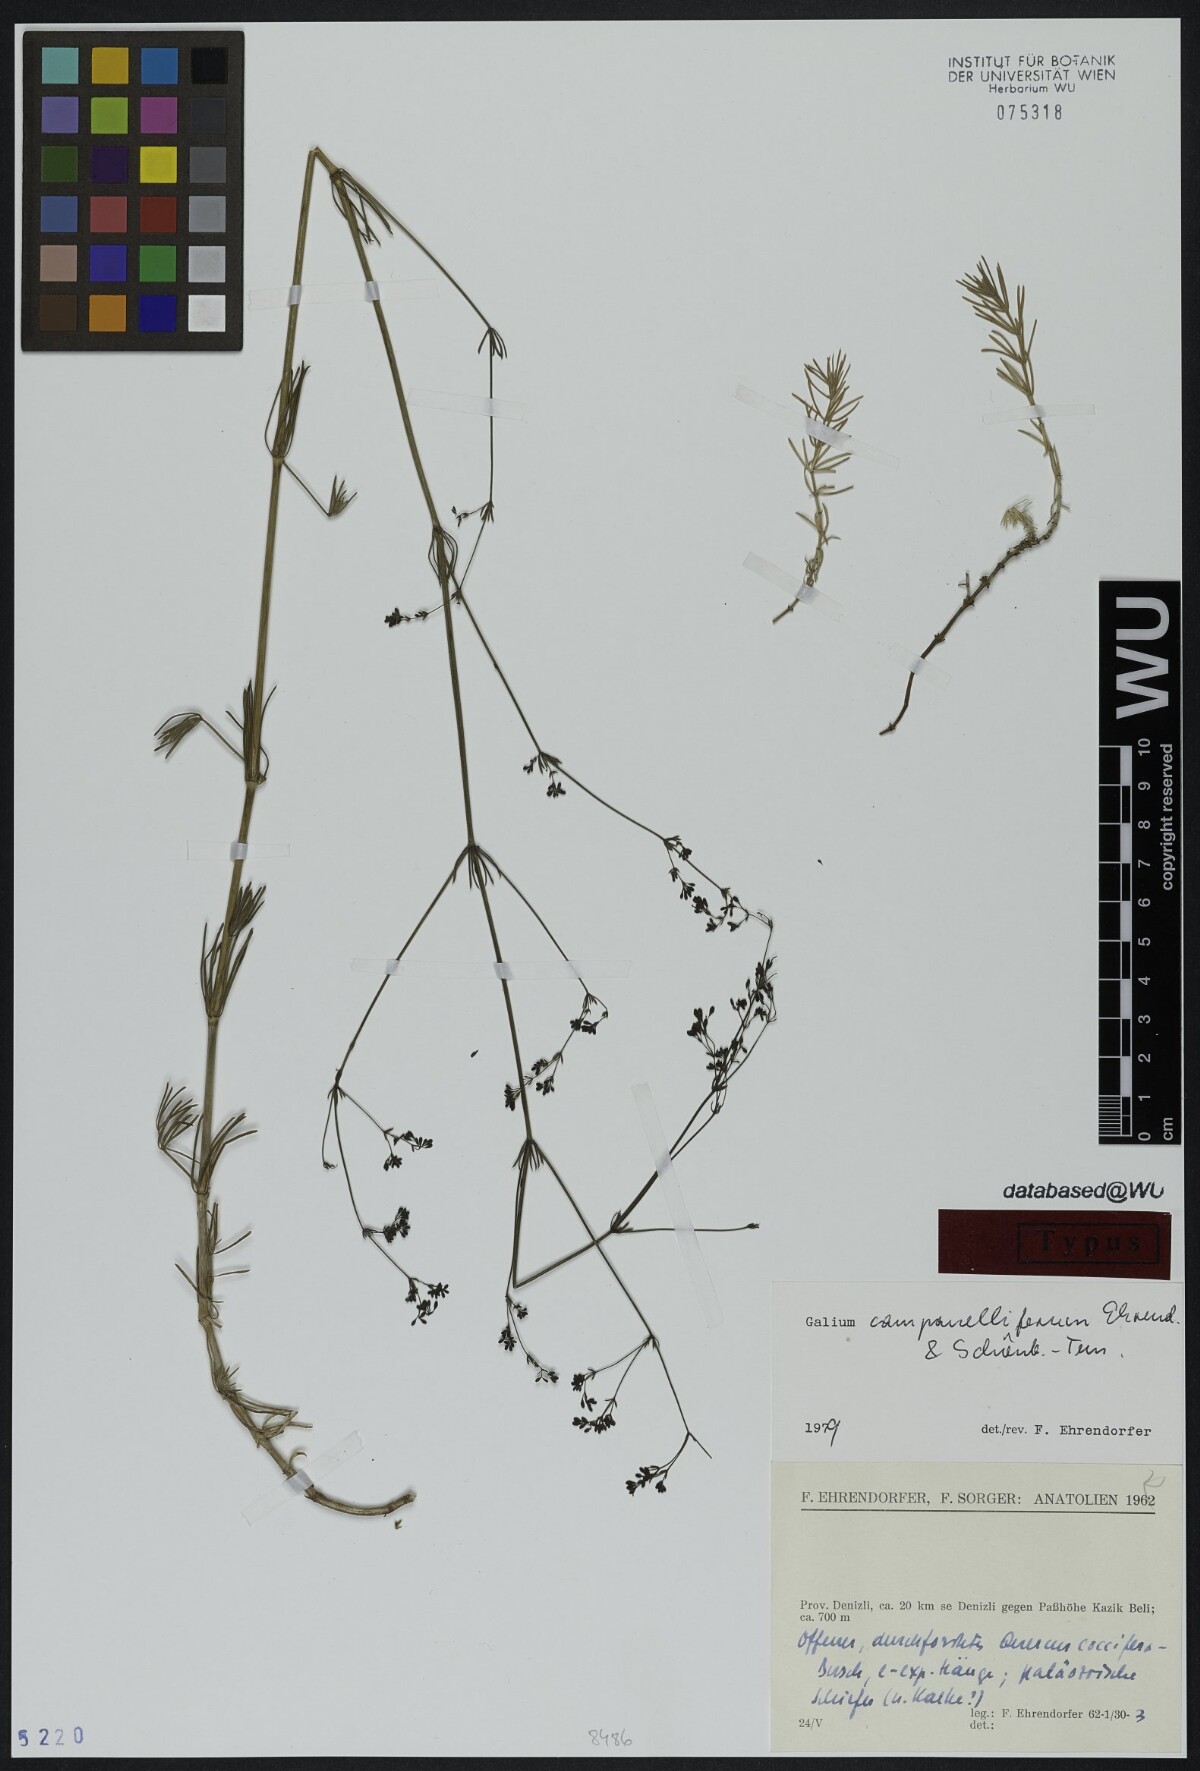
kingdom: Plantae
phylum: Tracheophyta
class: Magnoliopsida
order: Gentianales
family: Rubiaceae
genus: Galium
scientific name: Galium campanelliferum
